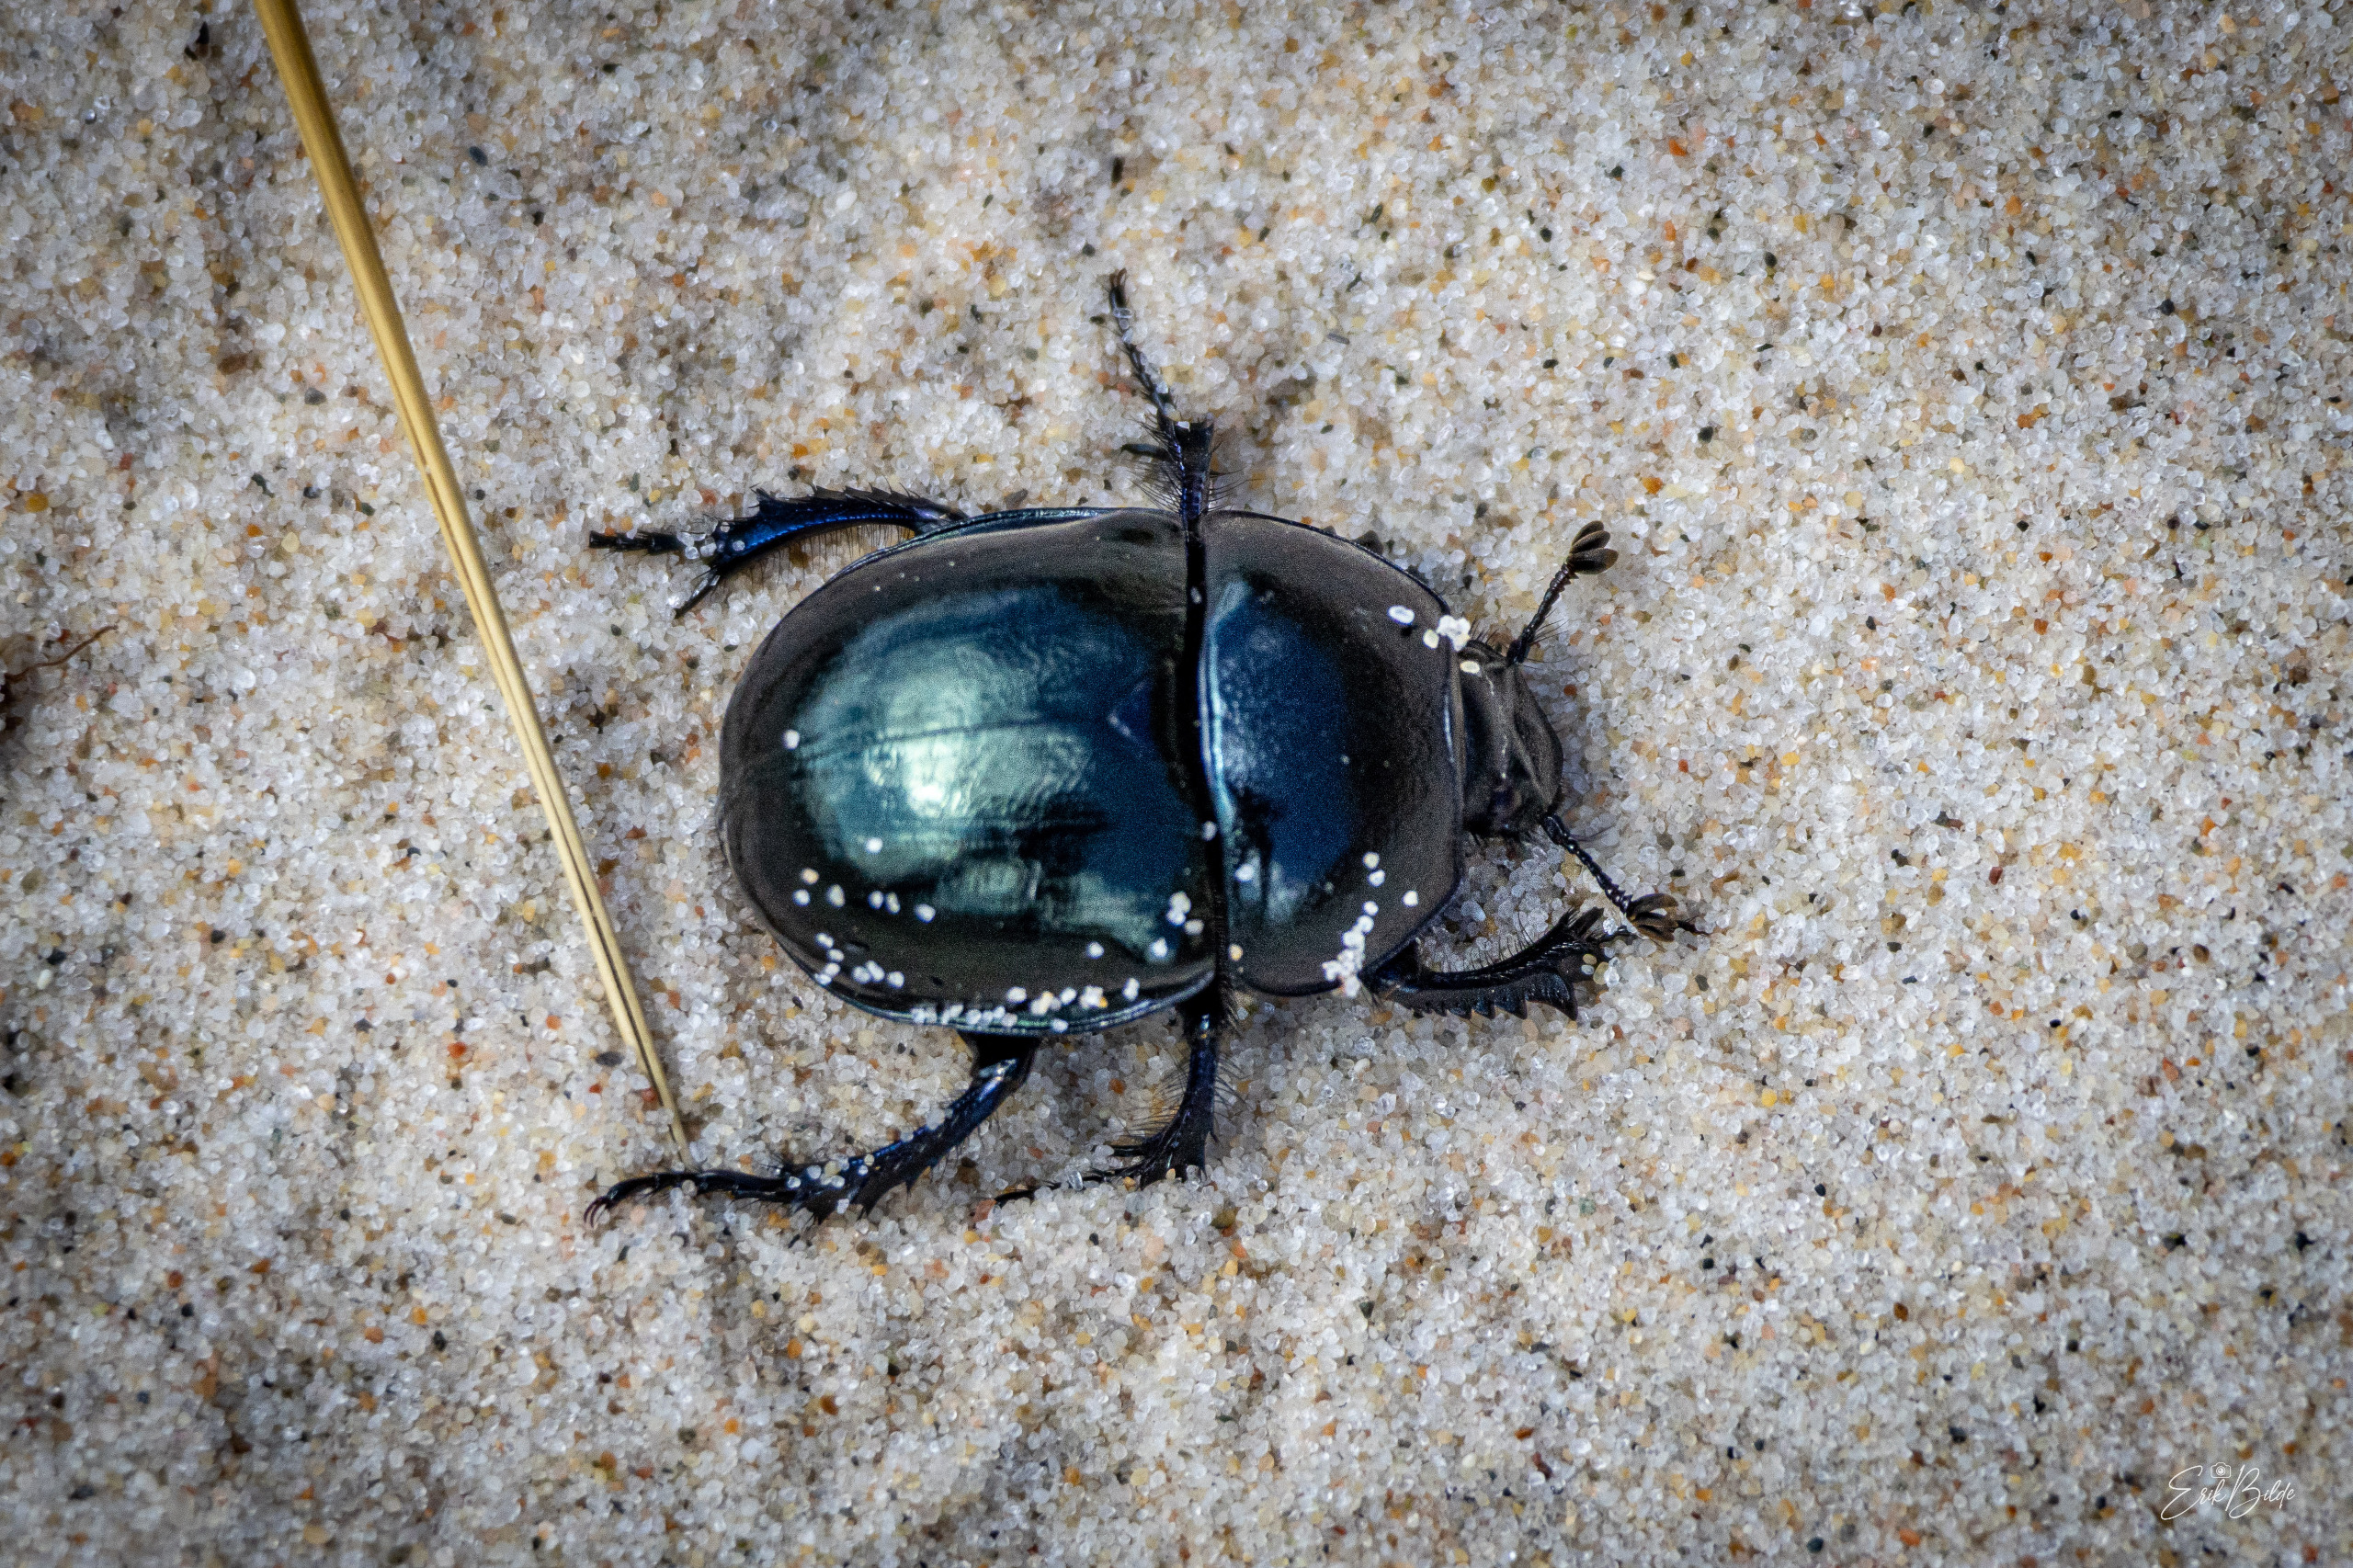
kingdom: Animalia
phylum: Arthropoda
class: Insecta
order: Coleoptera
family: Geotrupidae
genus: Trypocopris
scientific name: Trypocopris vernalis
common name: Glat skarnbasse
